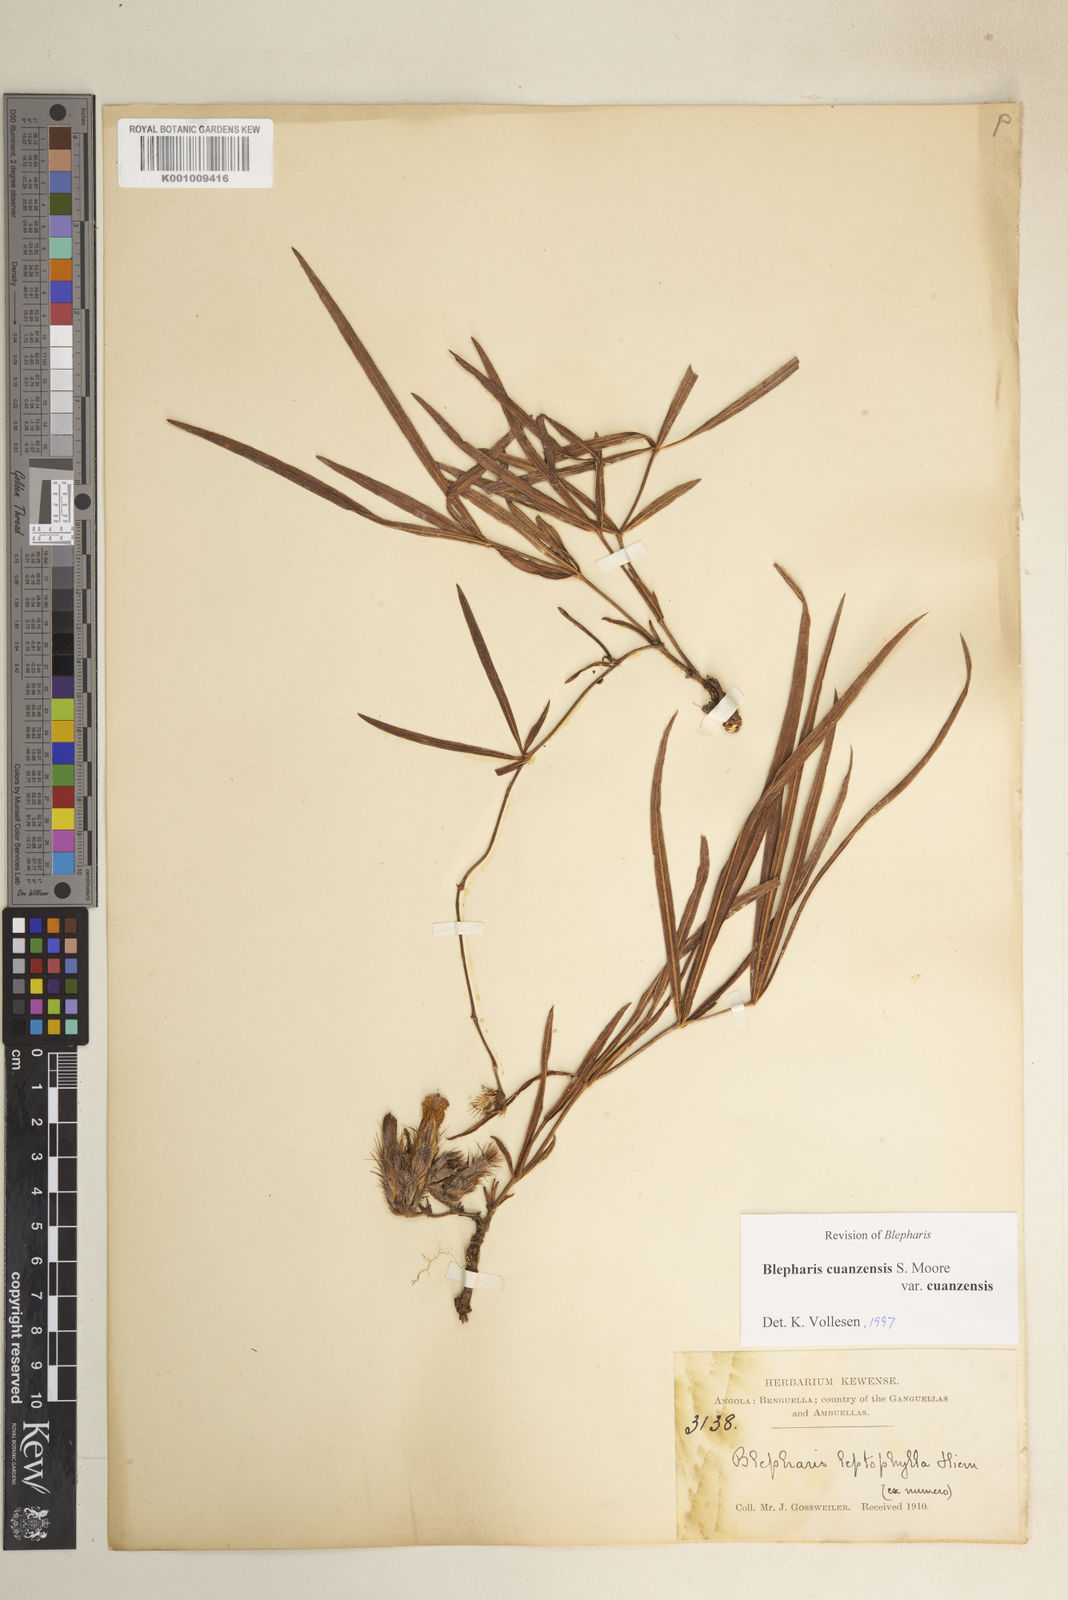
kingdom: Plantae
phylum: Tracheophyta
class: Magnoliopsida
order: Lamiales
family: Acanthaceae
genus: Blepharis
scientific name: Blepharis cuanzensis
